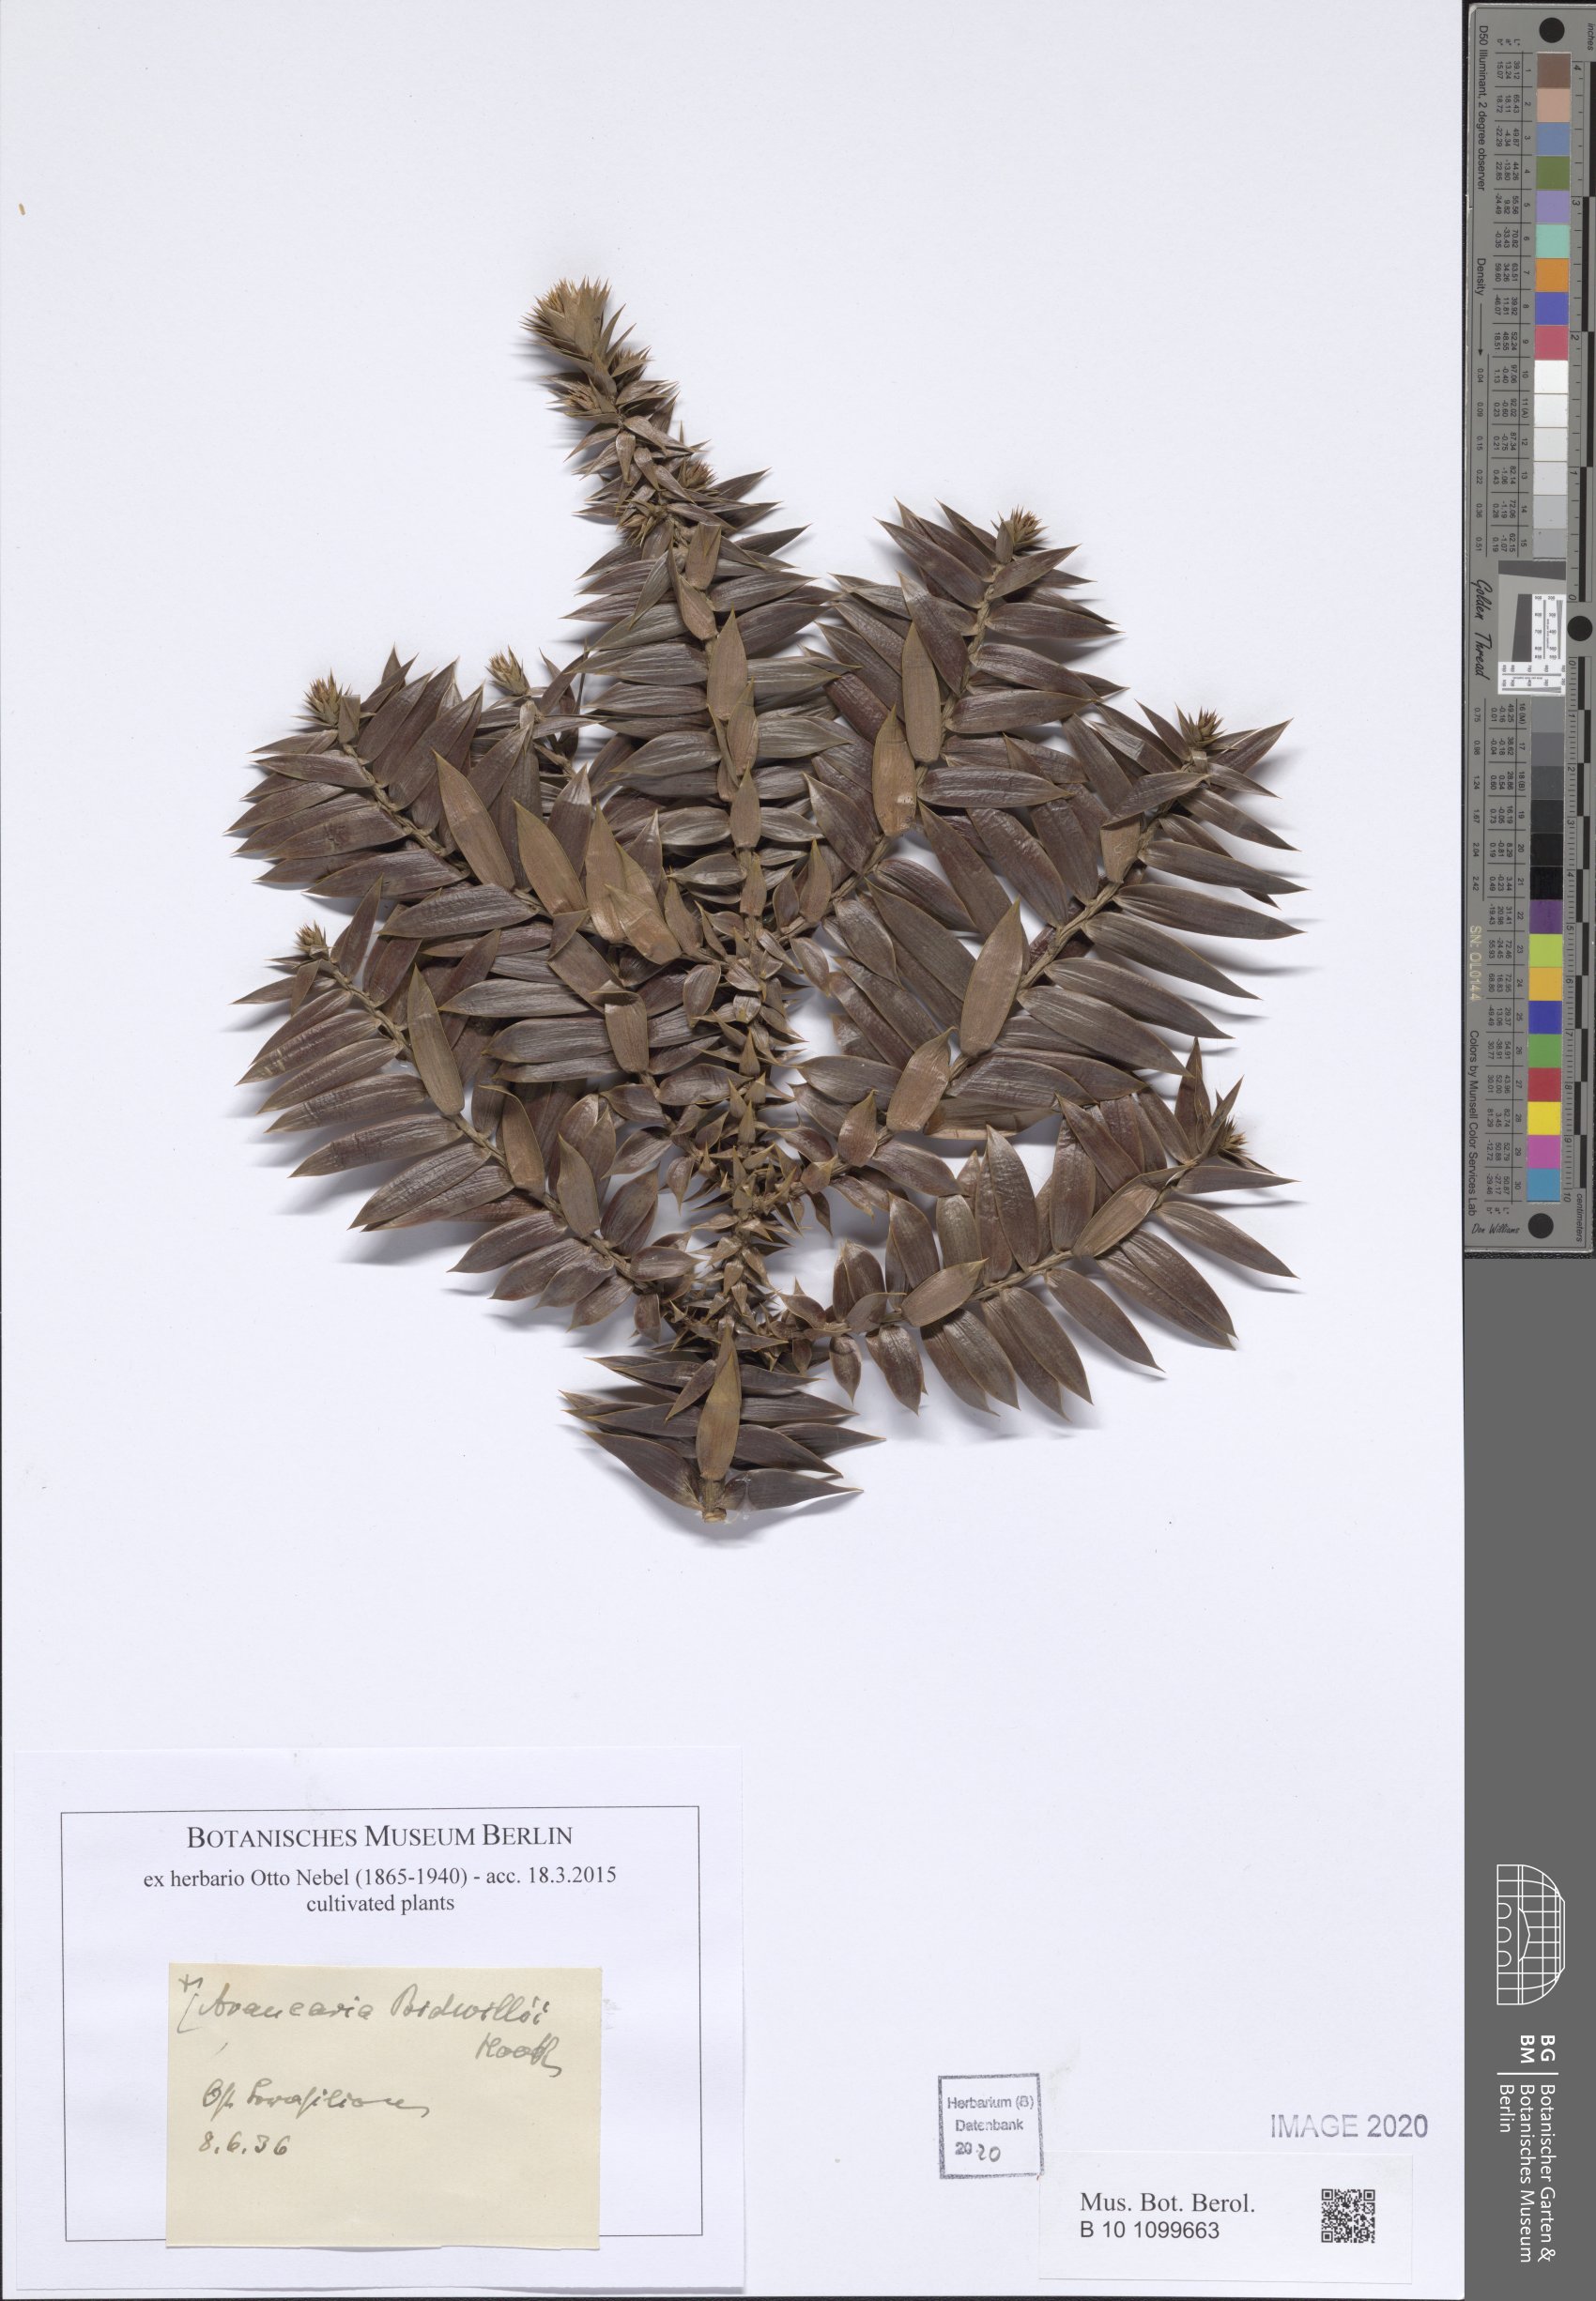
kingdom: Plantae
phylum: Tracheophyta
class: Pinopsida
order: Pinales
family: Araucariaceae
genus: Araucaria
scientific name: Araucaria bidwillii
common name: Moreton-bay-pine
